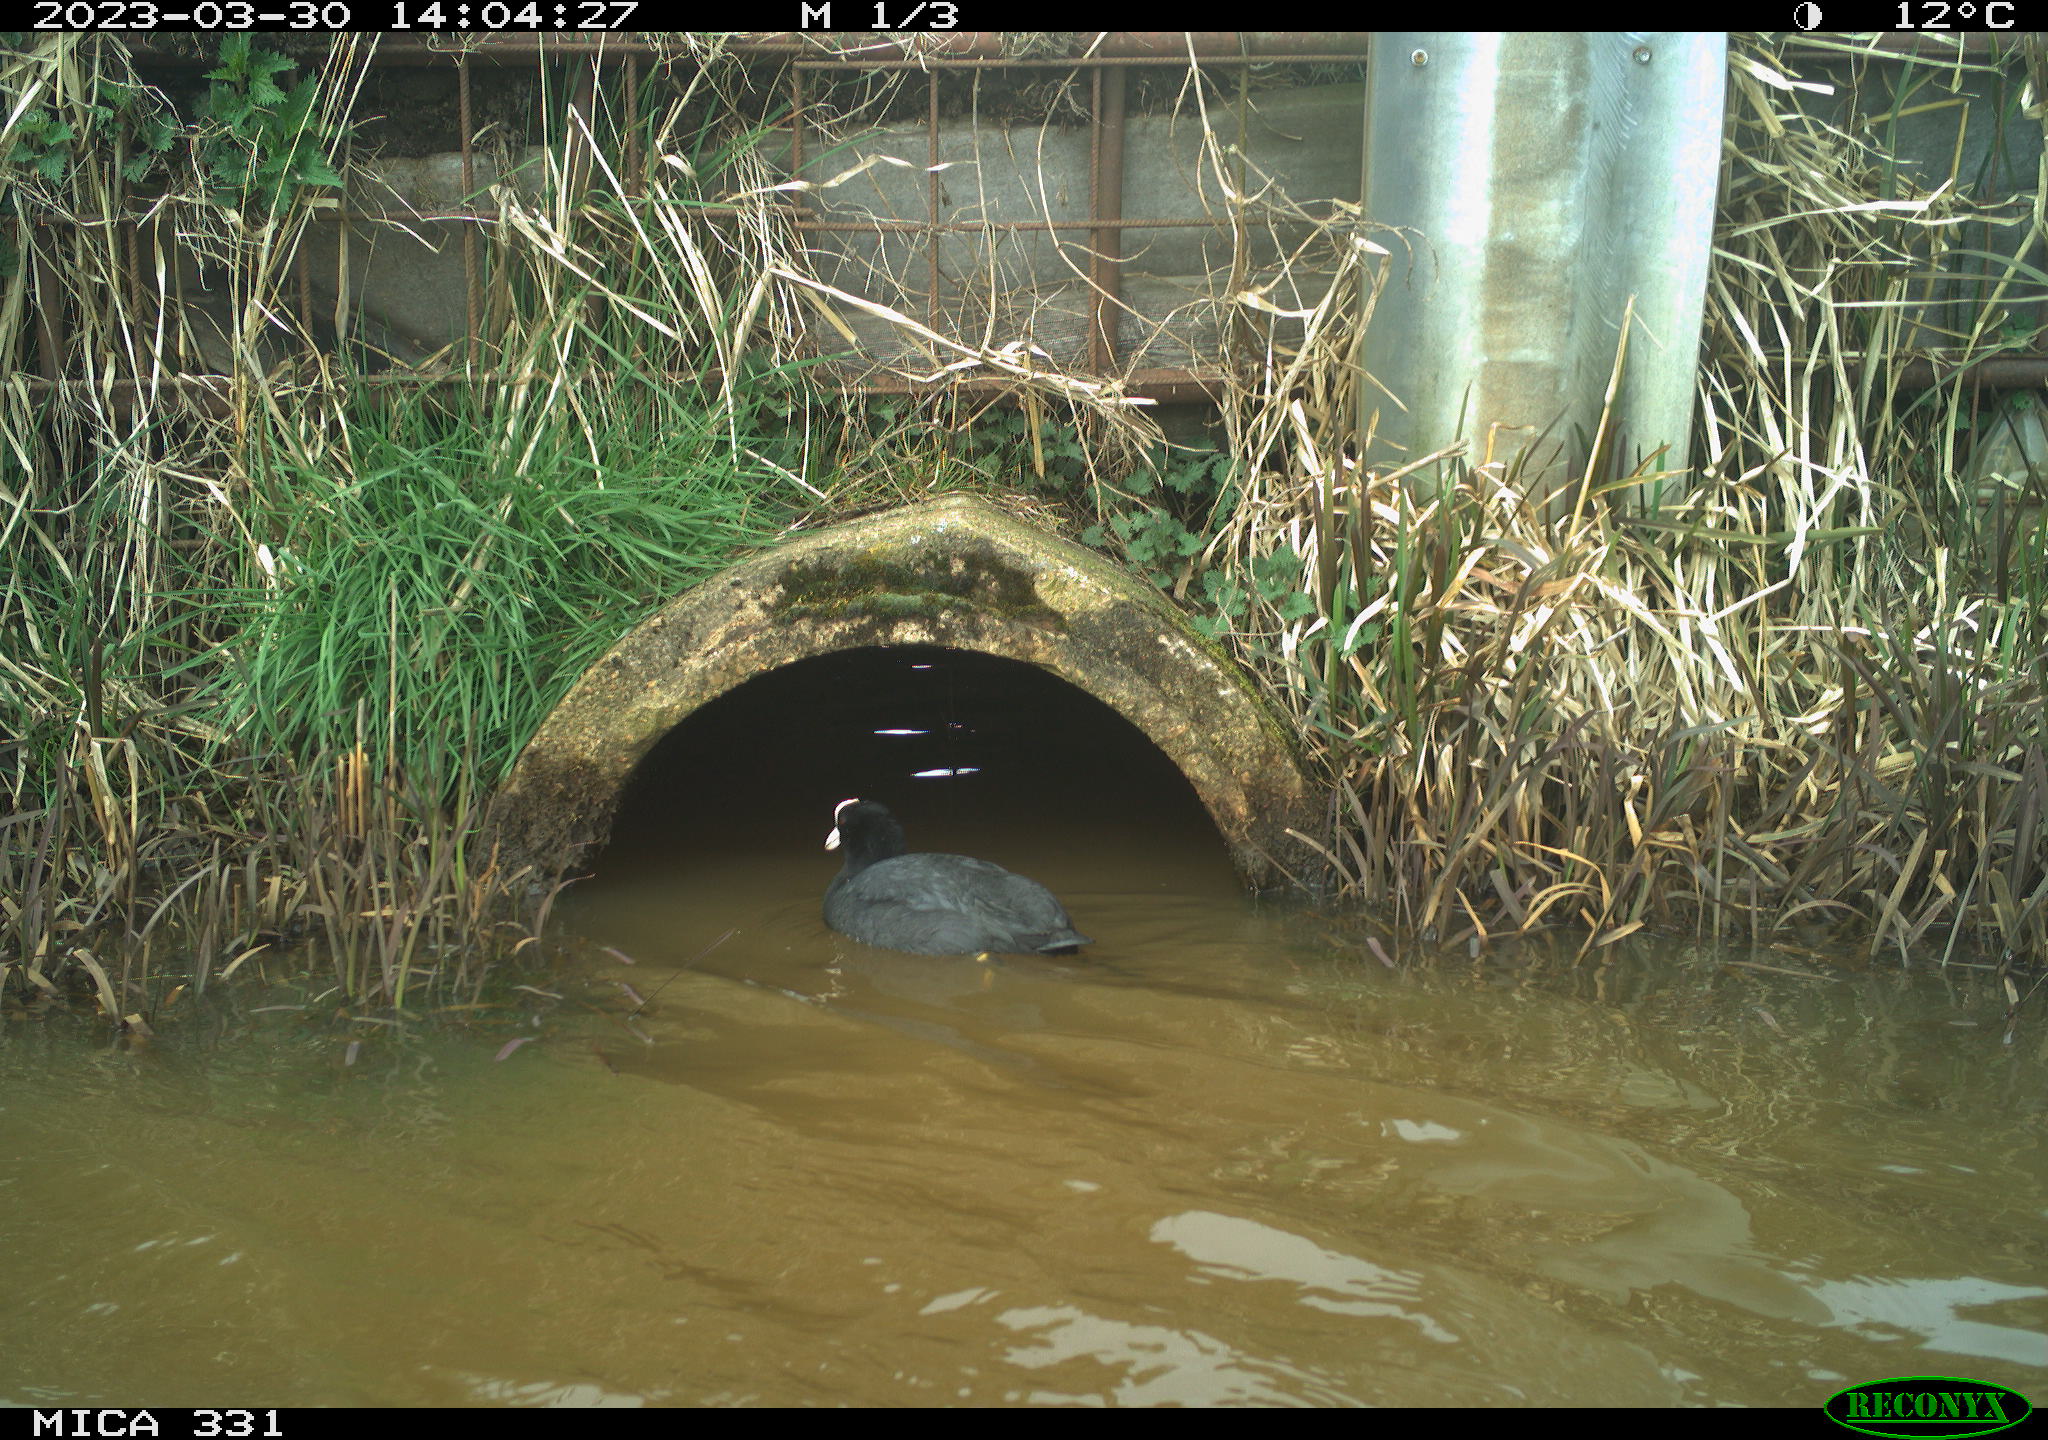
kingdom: Animalia
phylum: Chordata
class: Aves
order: Gruiformes
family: Rallidae
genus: Gallinula
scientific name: Gallinula chloropus
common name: Common moorhen
